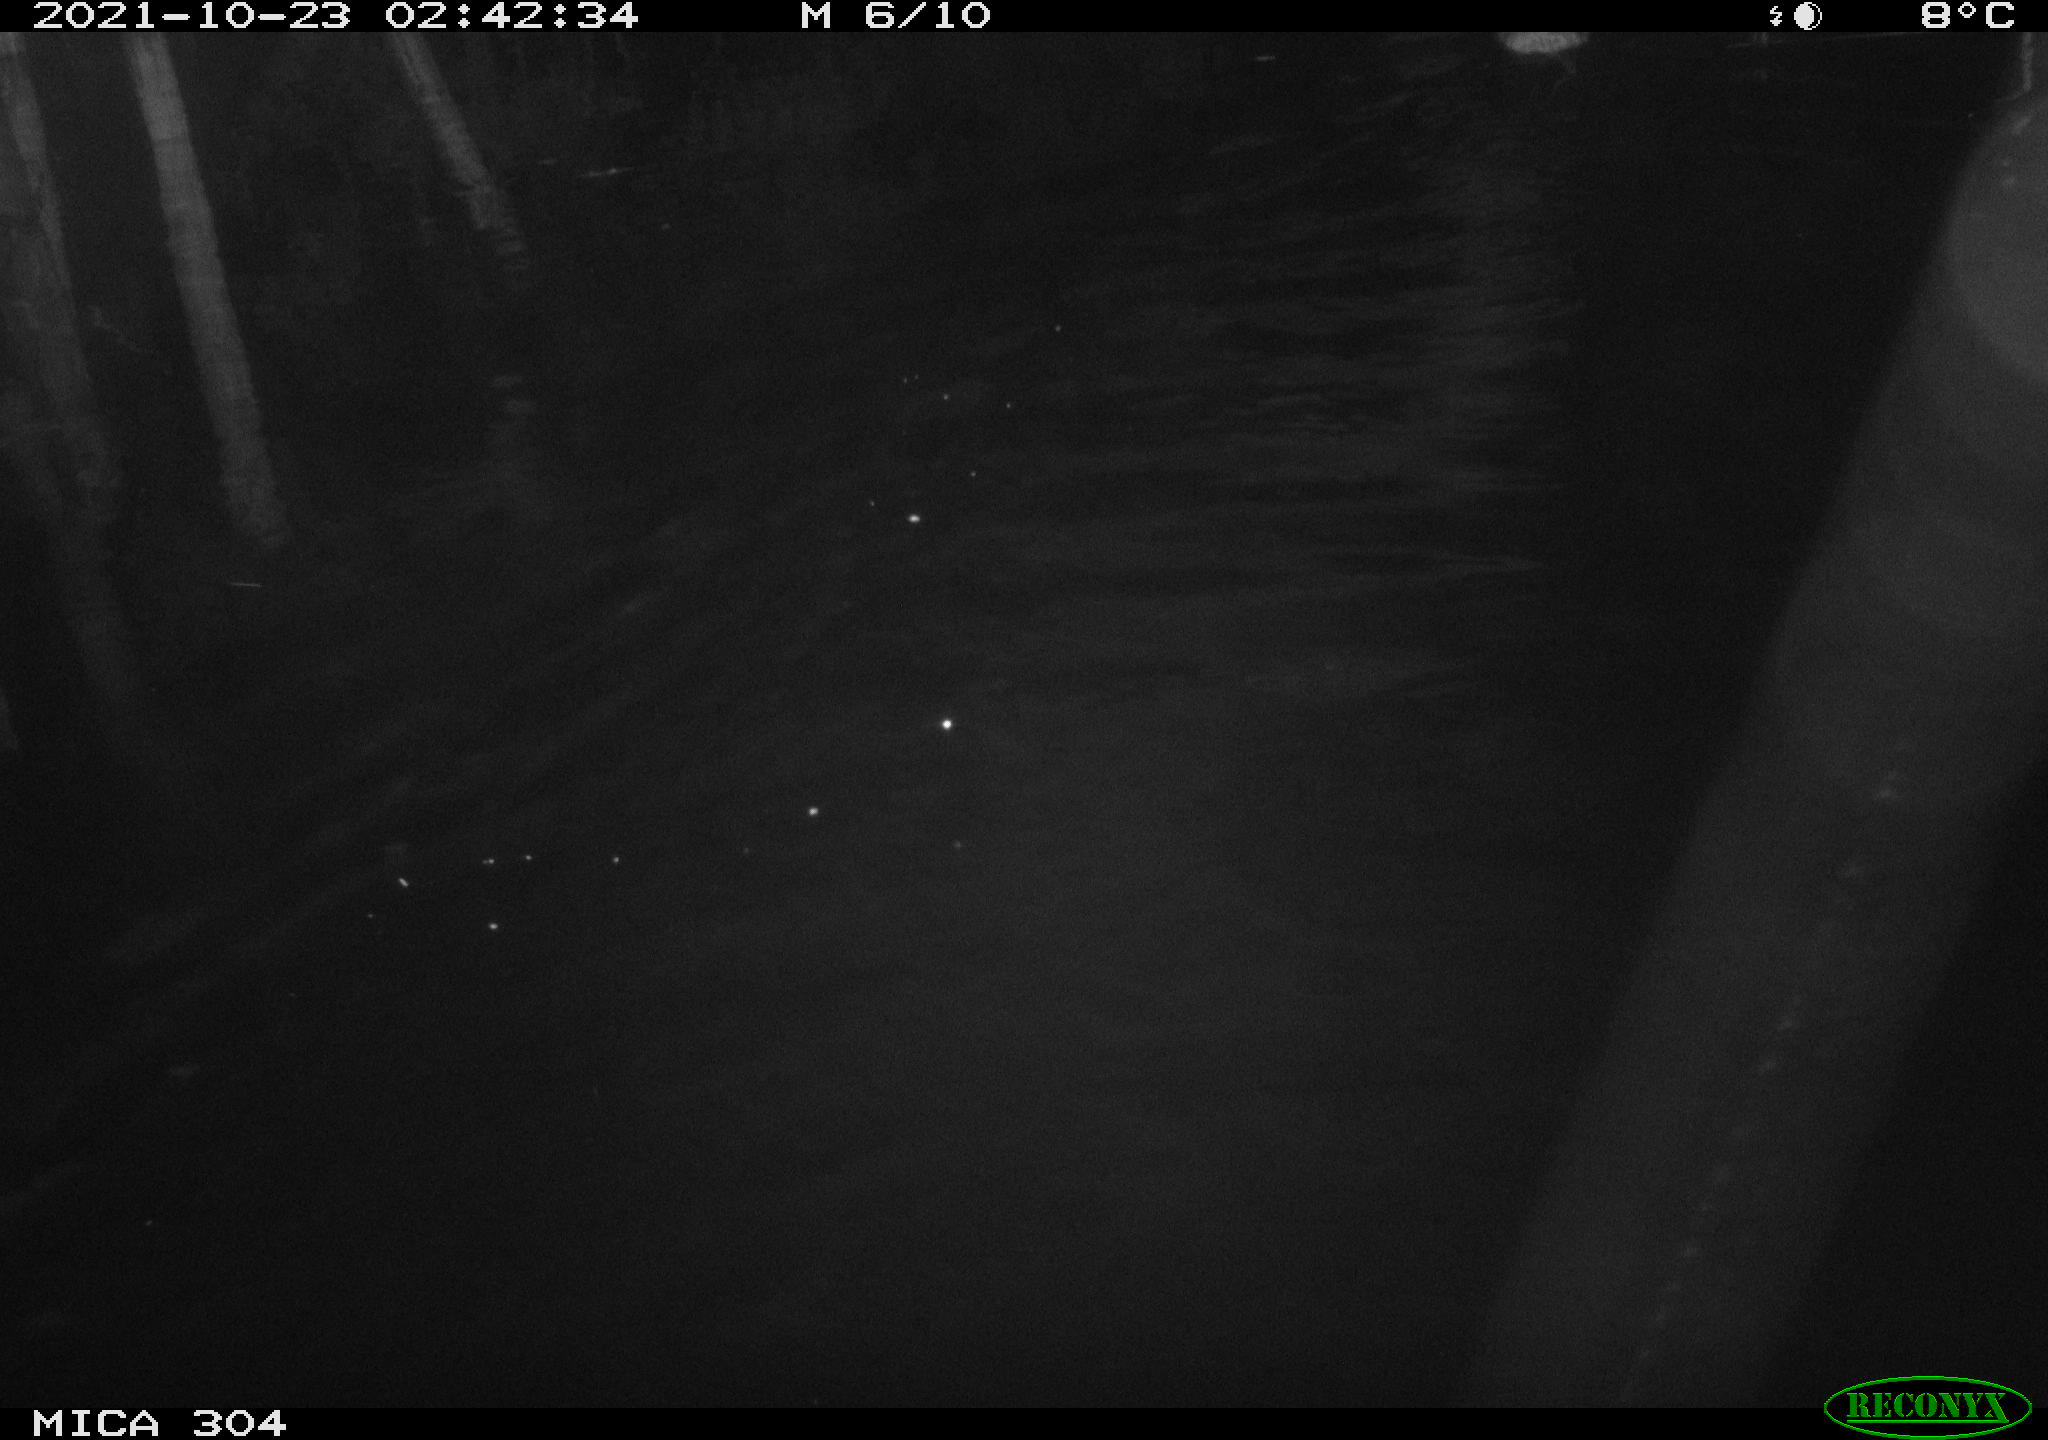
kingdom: Animalia
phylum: Chordata
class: Mammalia
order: Rodentia
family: Cricetidae
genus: Ondatra
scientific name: Ondatra zibethicus
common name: Muskrat
